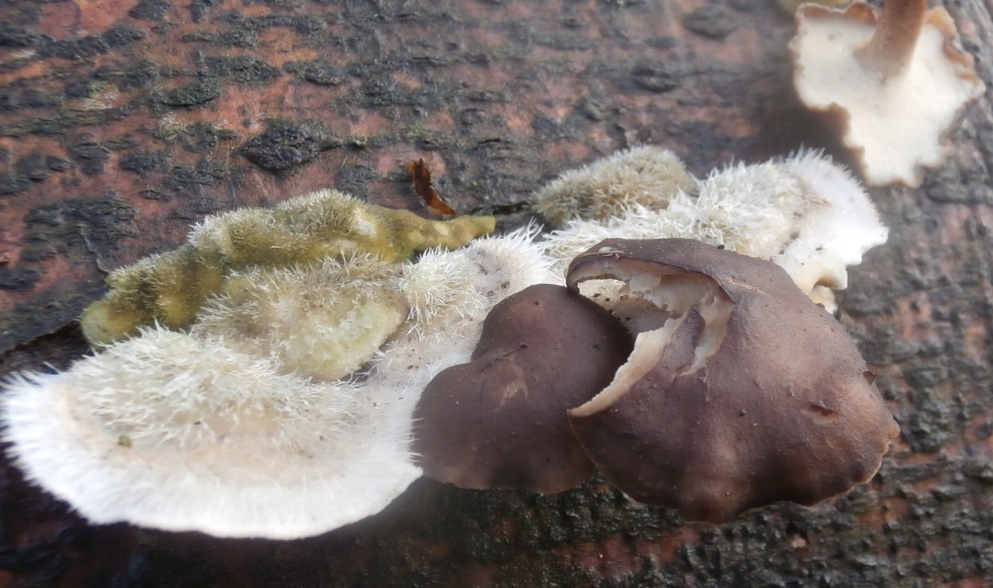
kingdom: Fungi
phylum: Basidiomycota
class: Agaricomycetes
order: Polyporales
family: Polyporaceae
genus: Lentinus
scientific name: Lentinus brumalis
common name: vinter-stilkporesvamp
